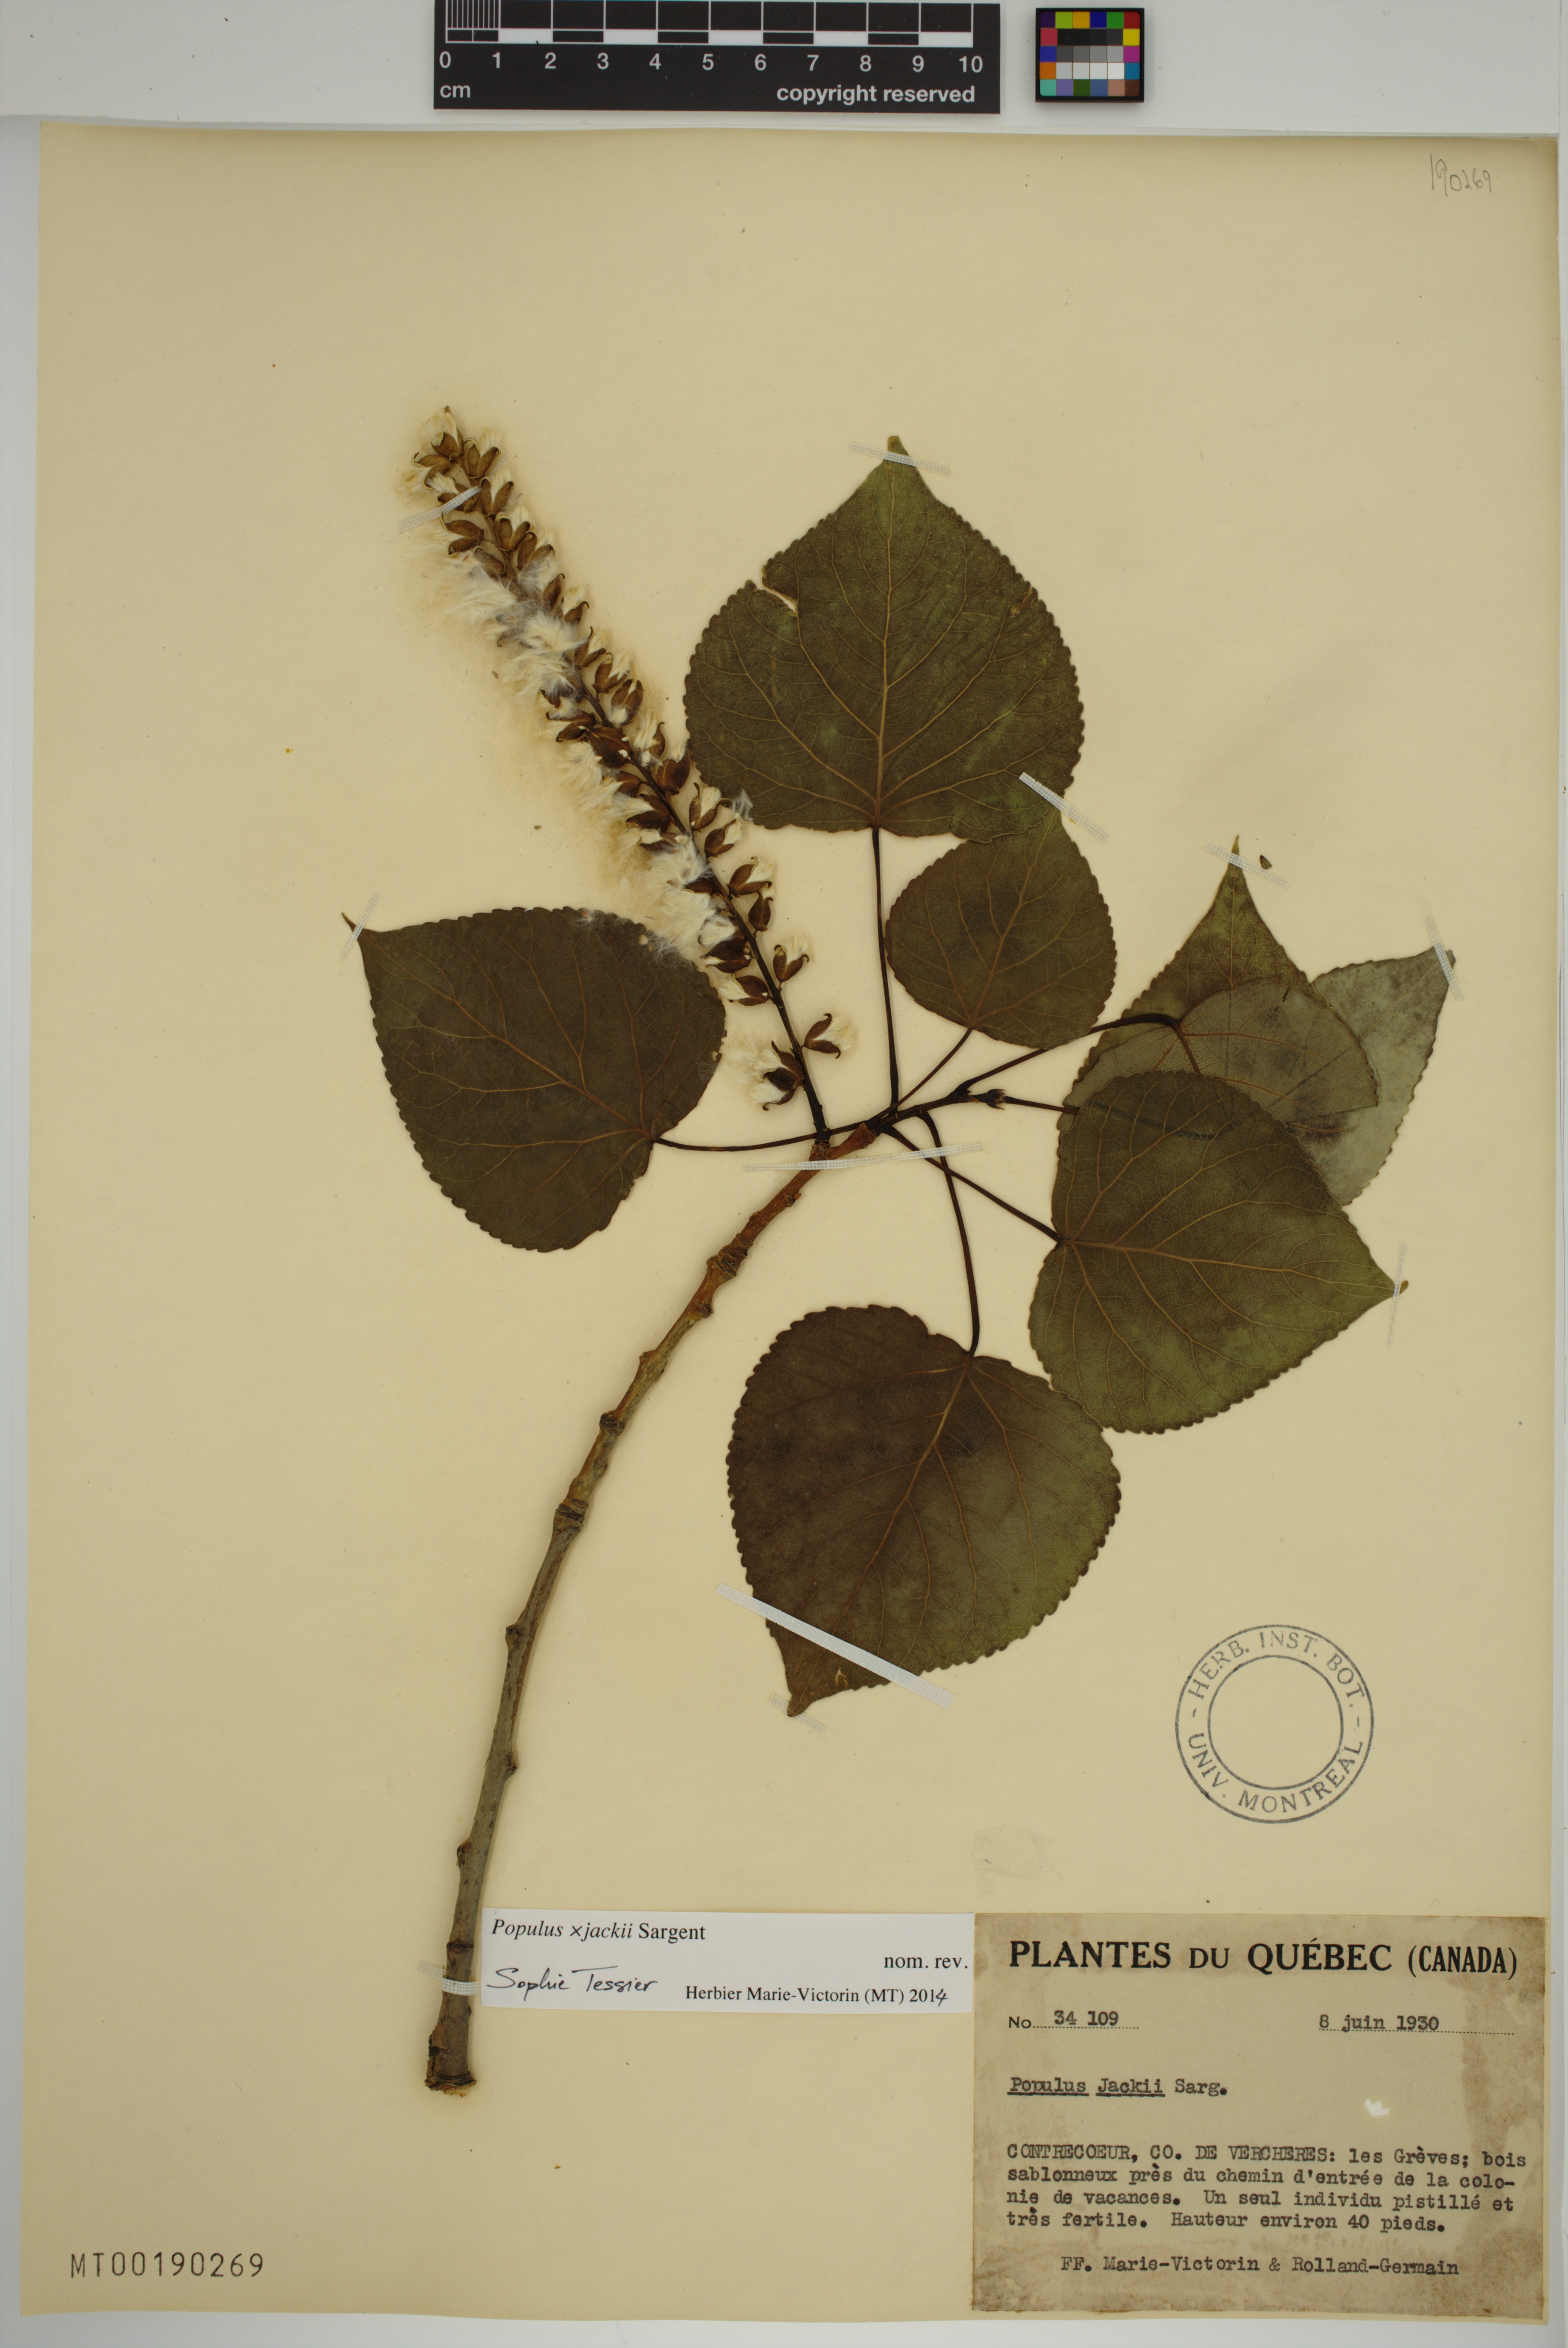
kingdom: Plantae
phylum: Tracheophyta
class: Magnoliopsida
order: Malpighiales
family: Salicaceae
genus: Populus
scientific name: Populus jackii
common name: Balm-of-gilead
